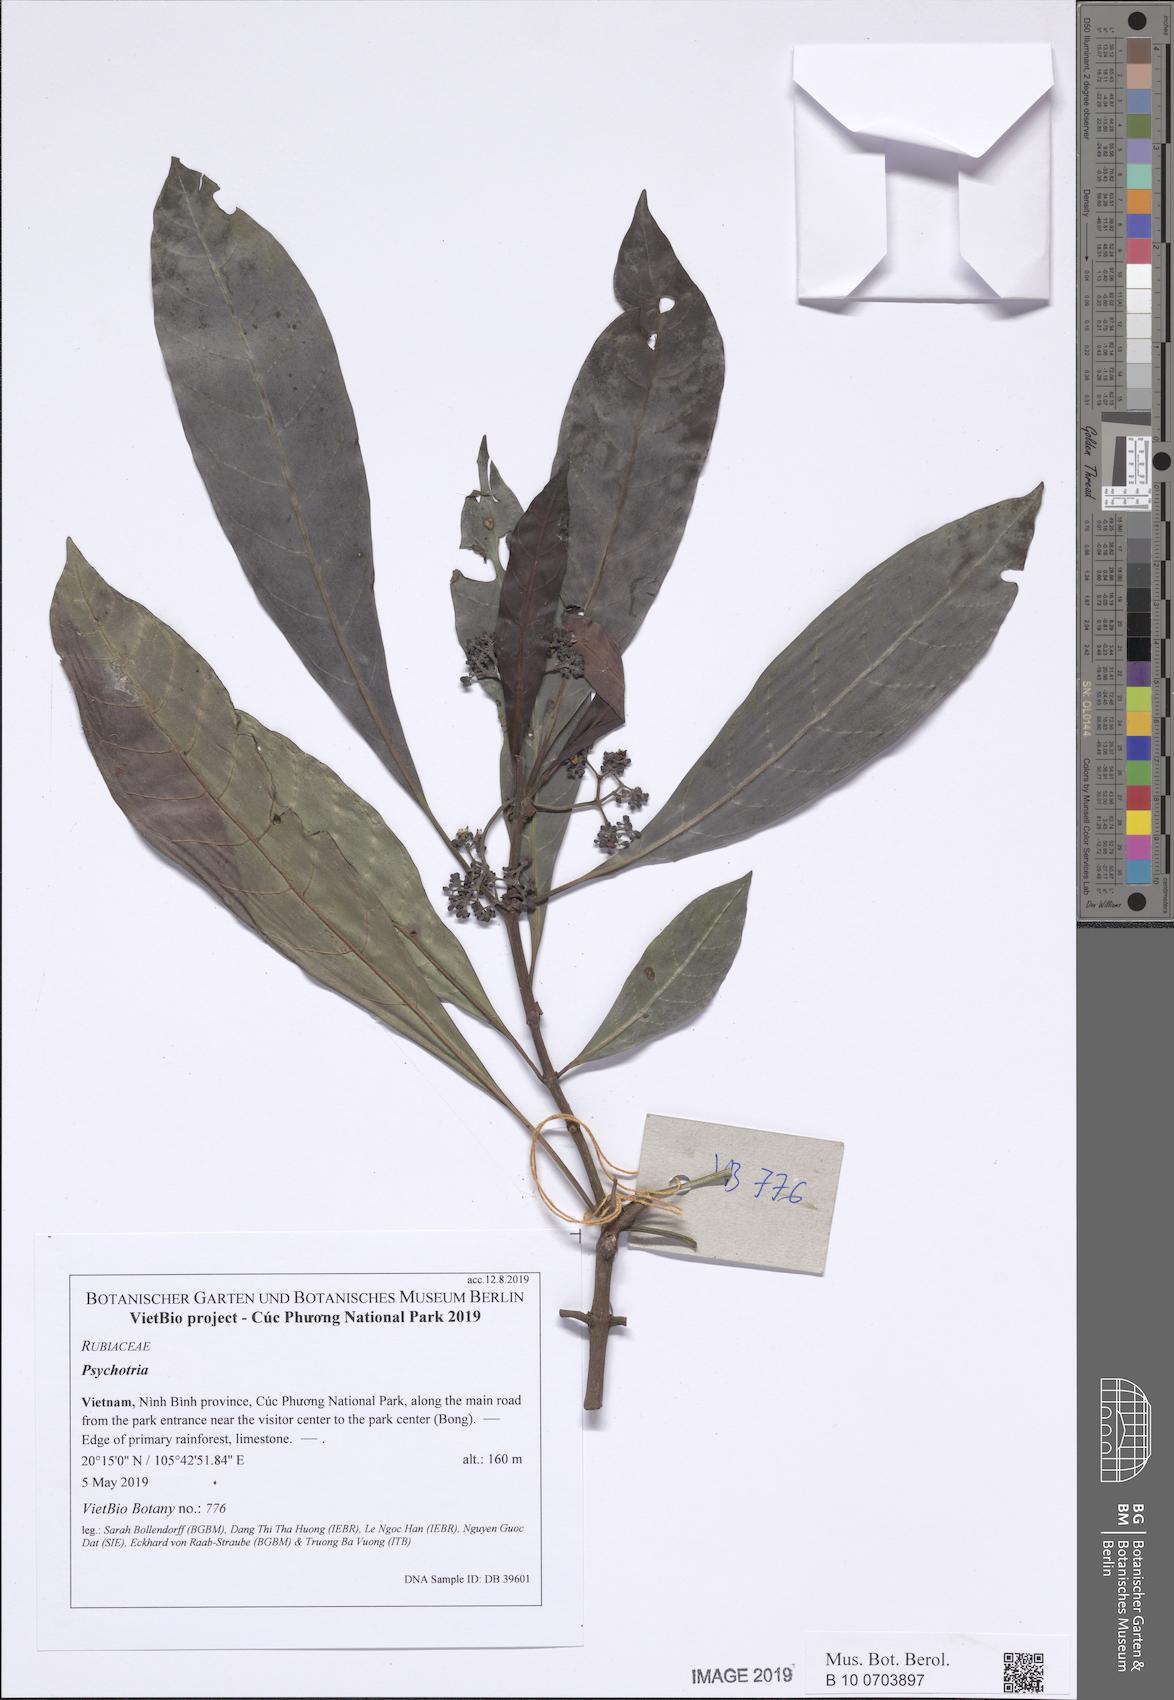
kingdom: Plantae
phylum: Tracheophyta
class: Magnoliopsida
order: Gentianales
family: Rubiaceae
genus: Psychotria
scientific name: Psychotria asiatica
